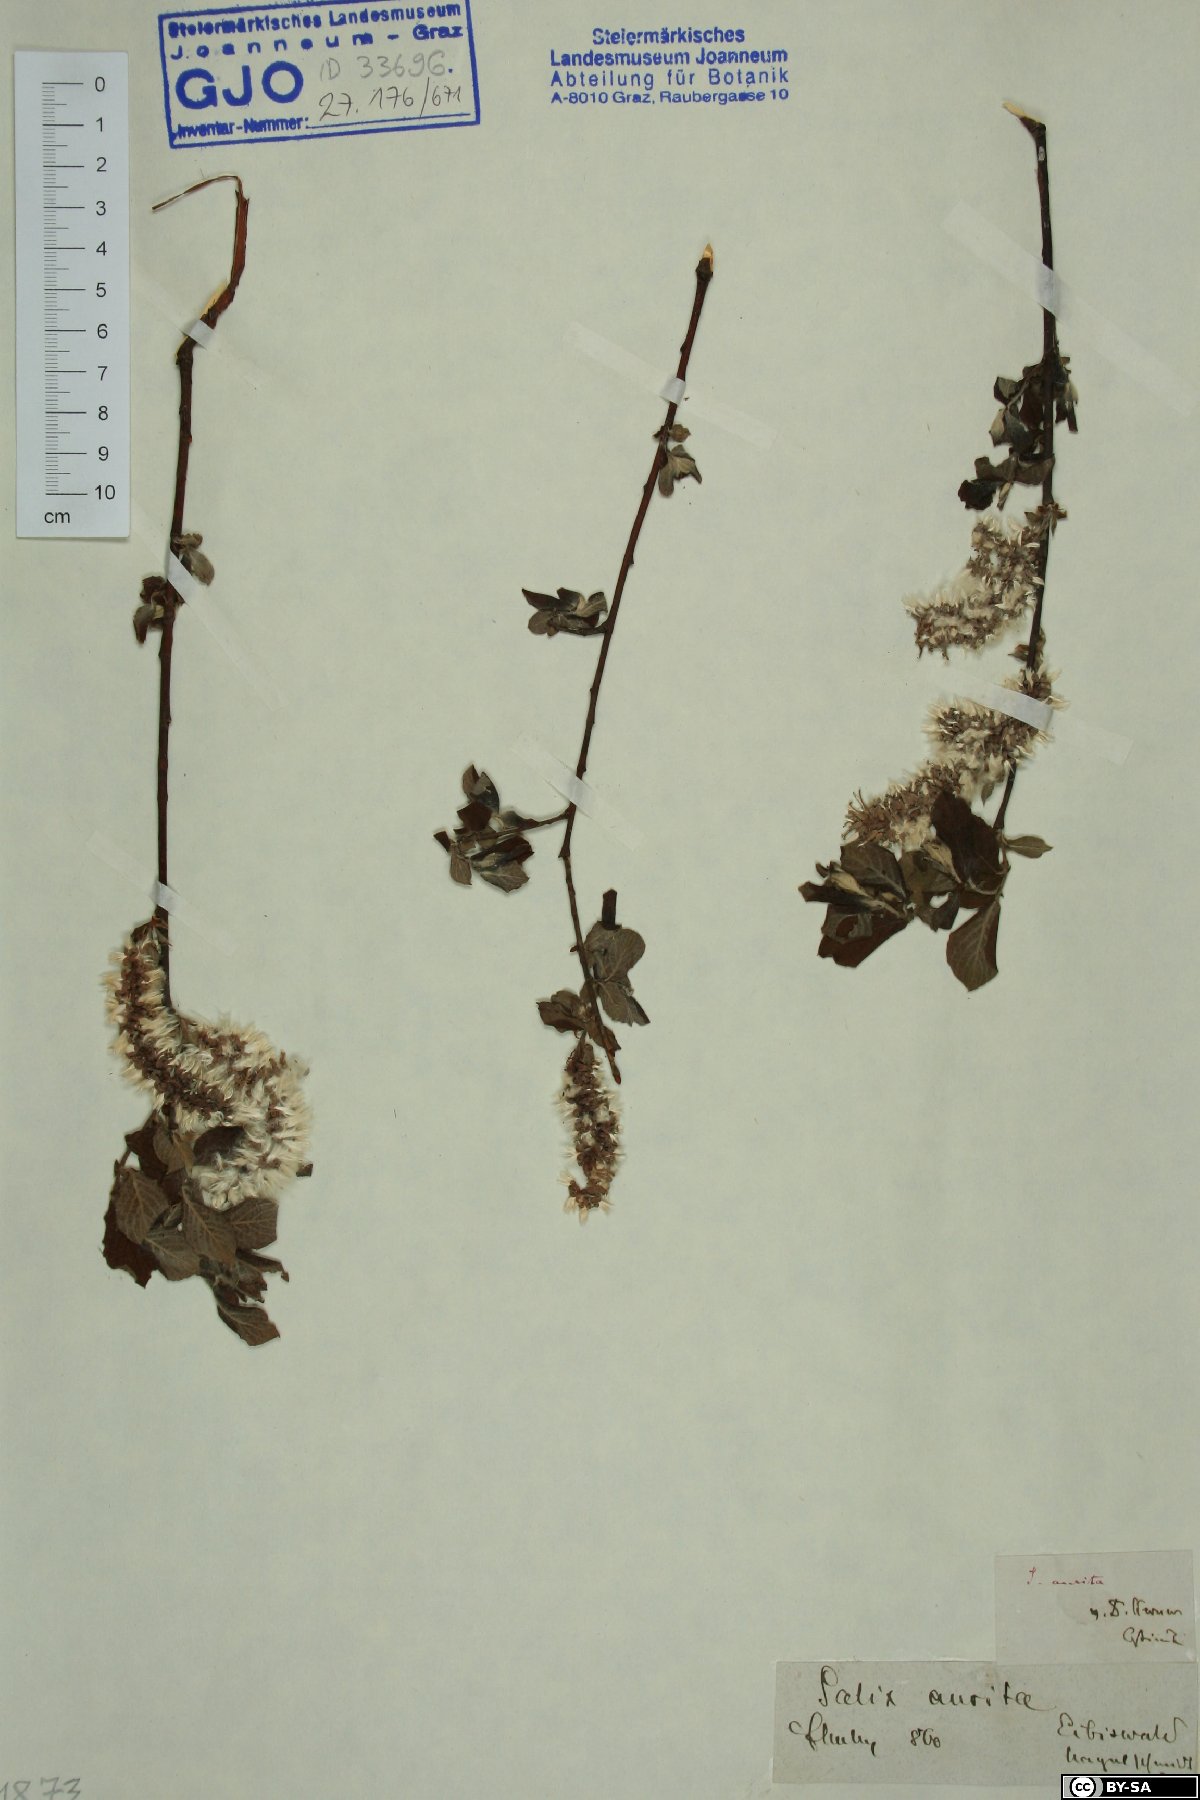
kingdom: Plantae
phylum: Tracheophyta
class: Magnoliopsida
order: Malpighiales
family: Salicaceae
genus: Salix
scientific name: Salix aurita
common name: Eared willow
